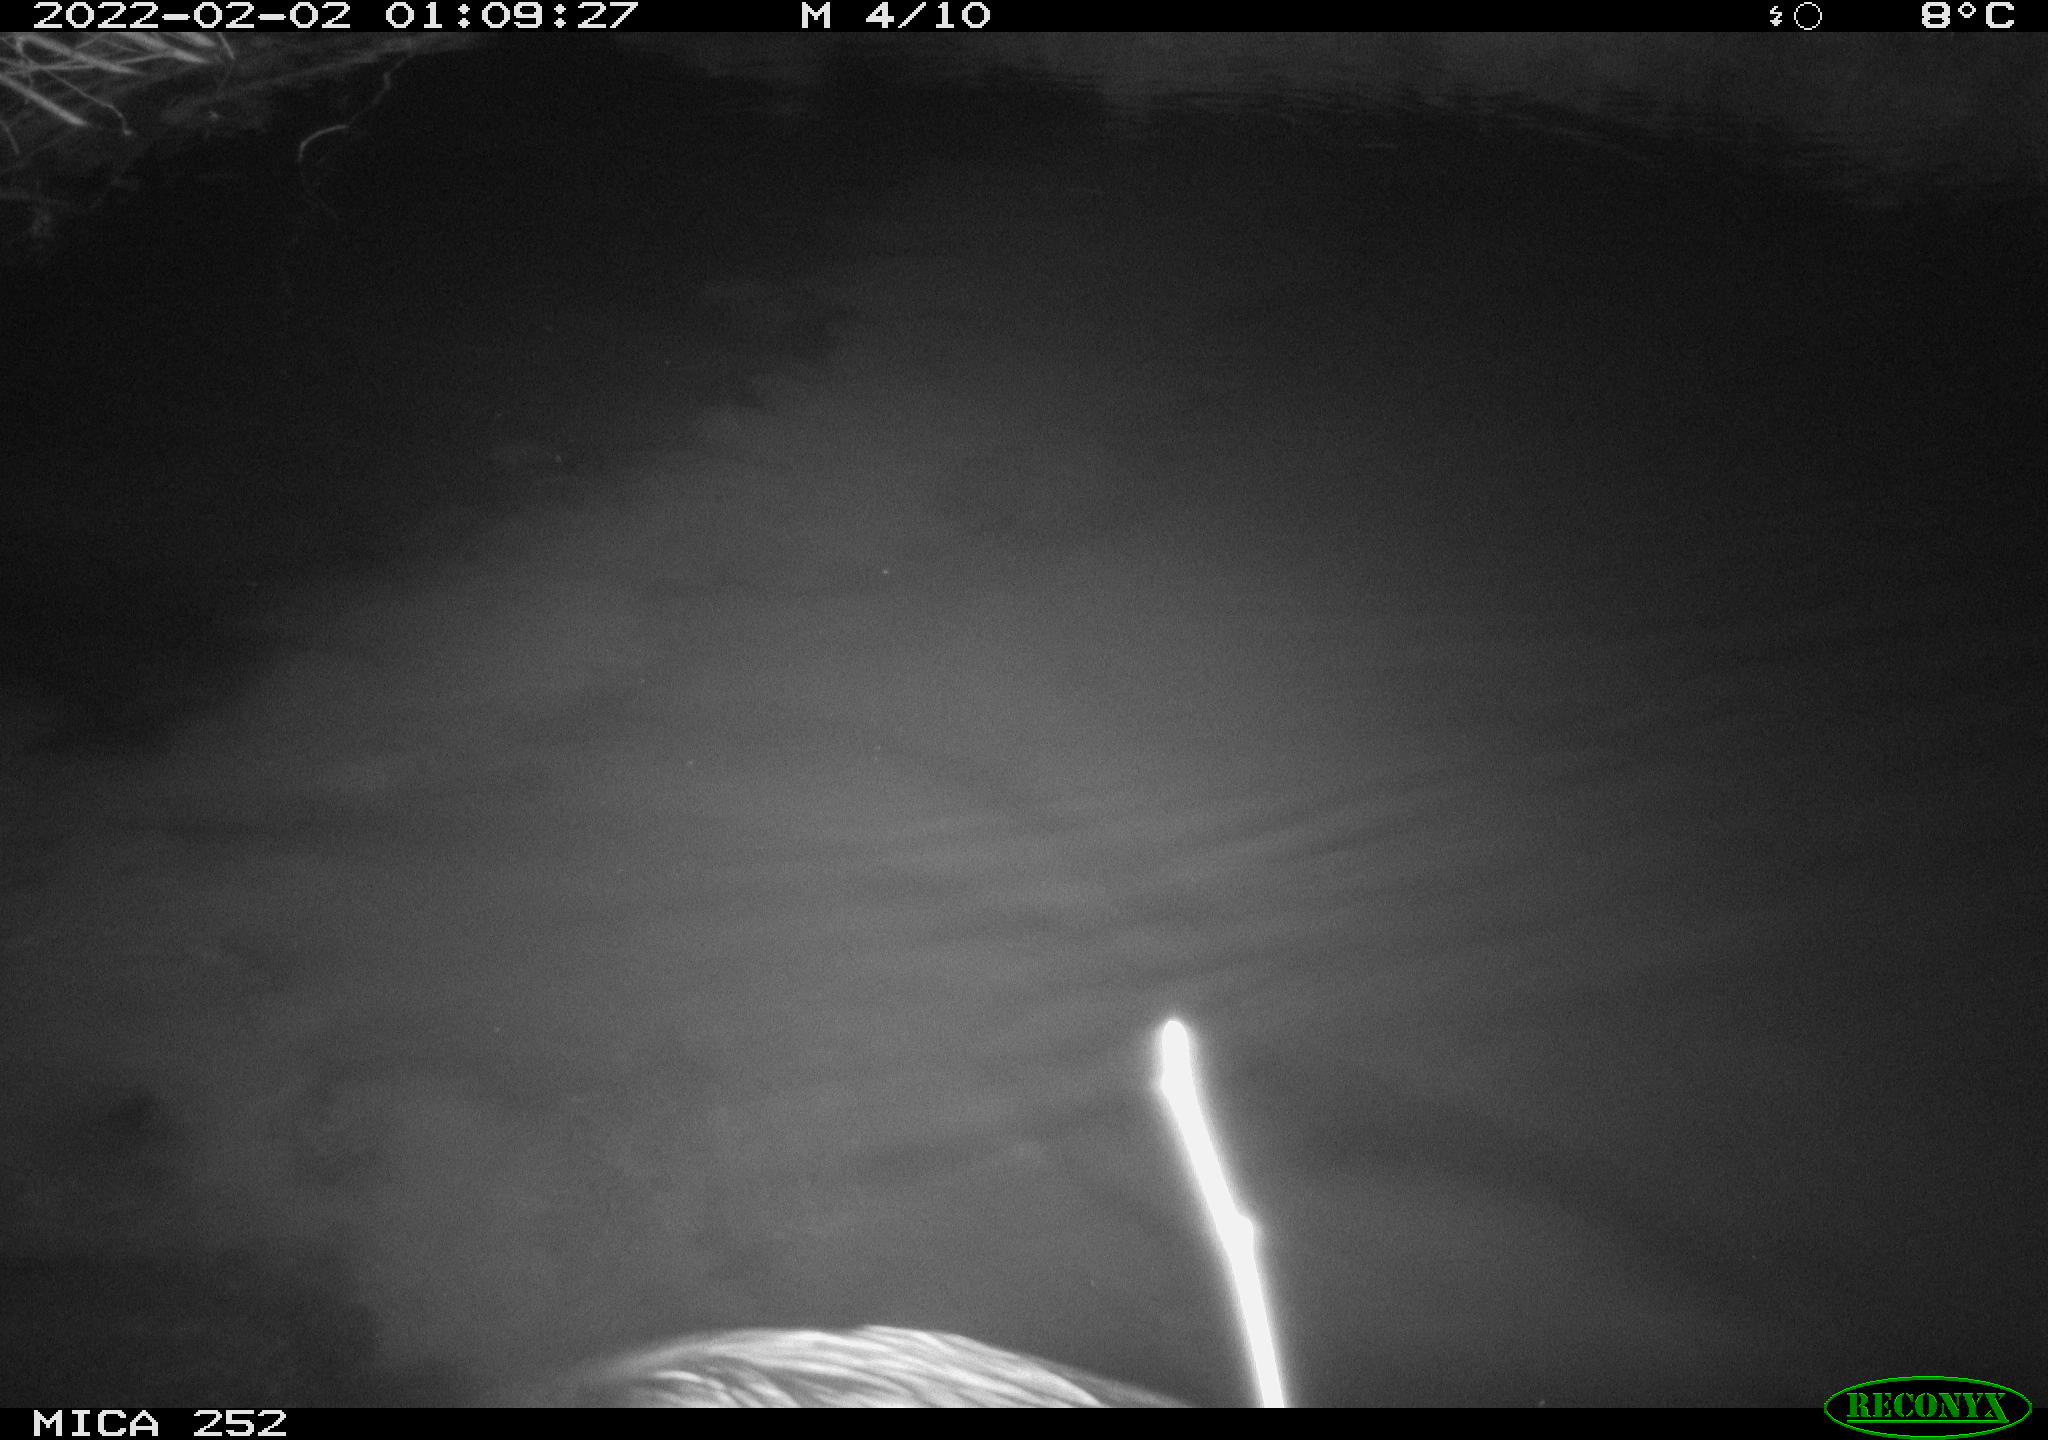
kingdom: Animalia
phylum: Chordata
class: Mammalia
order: Rodentia
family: Castoridae
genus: Castor
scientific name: Castor fiber
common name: Eurasian beaver
